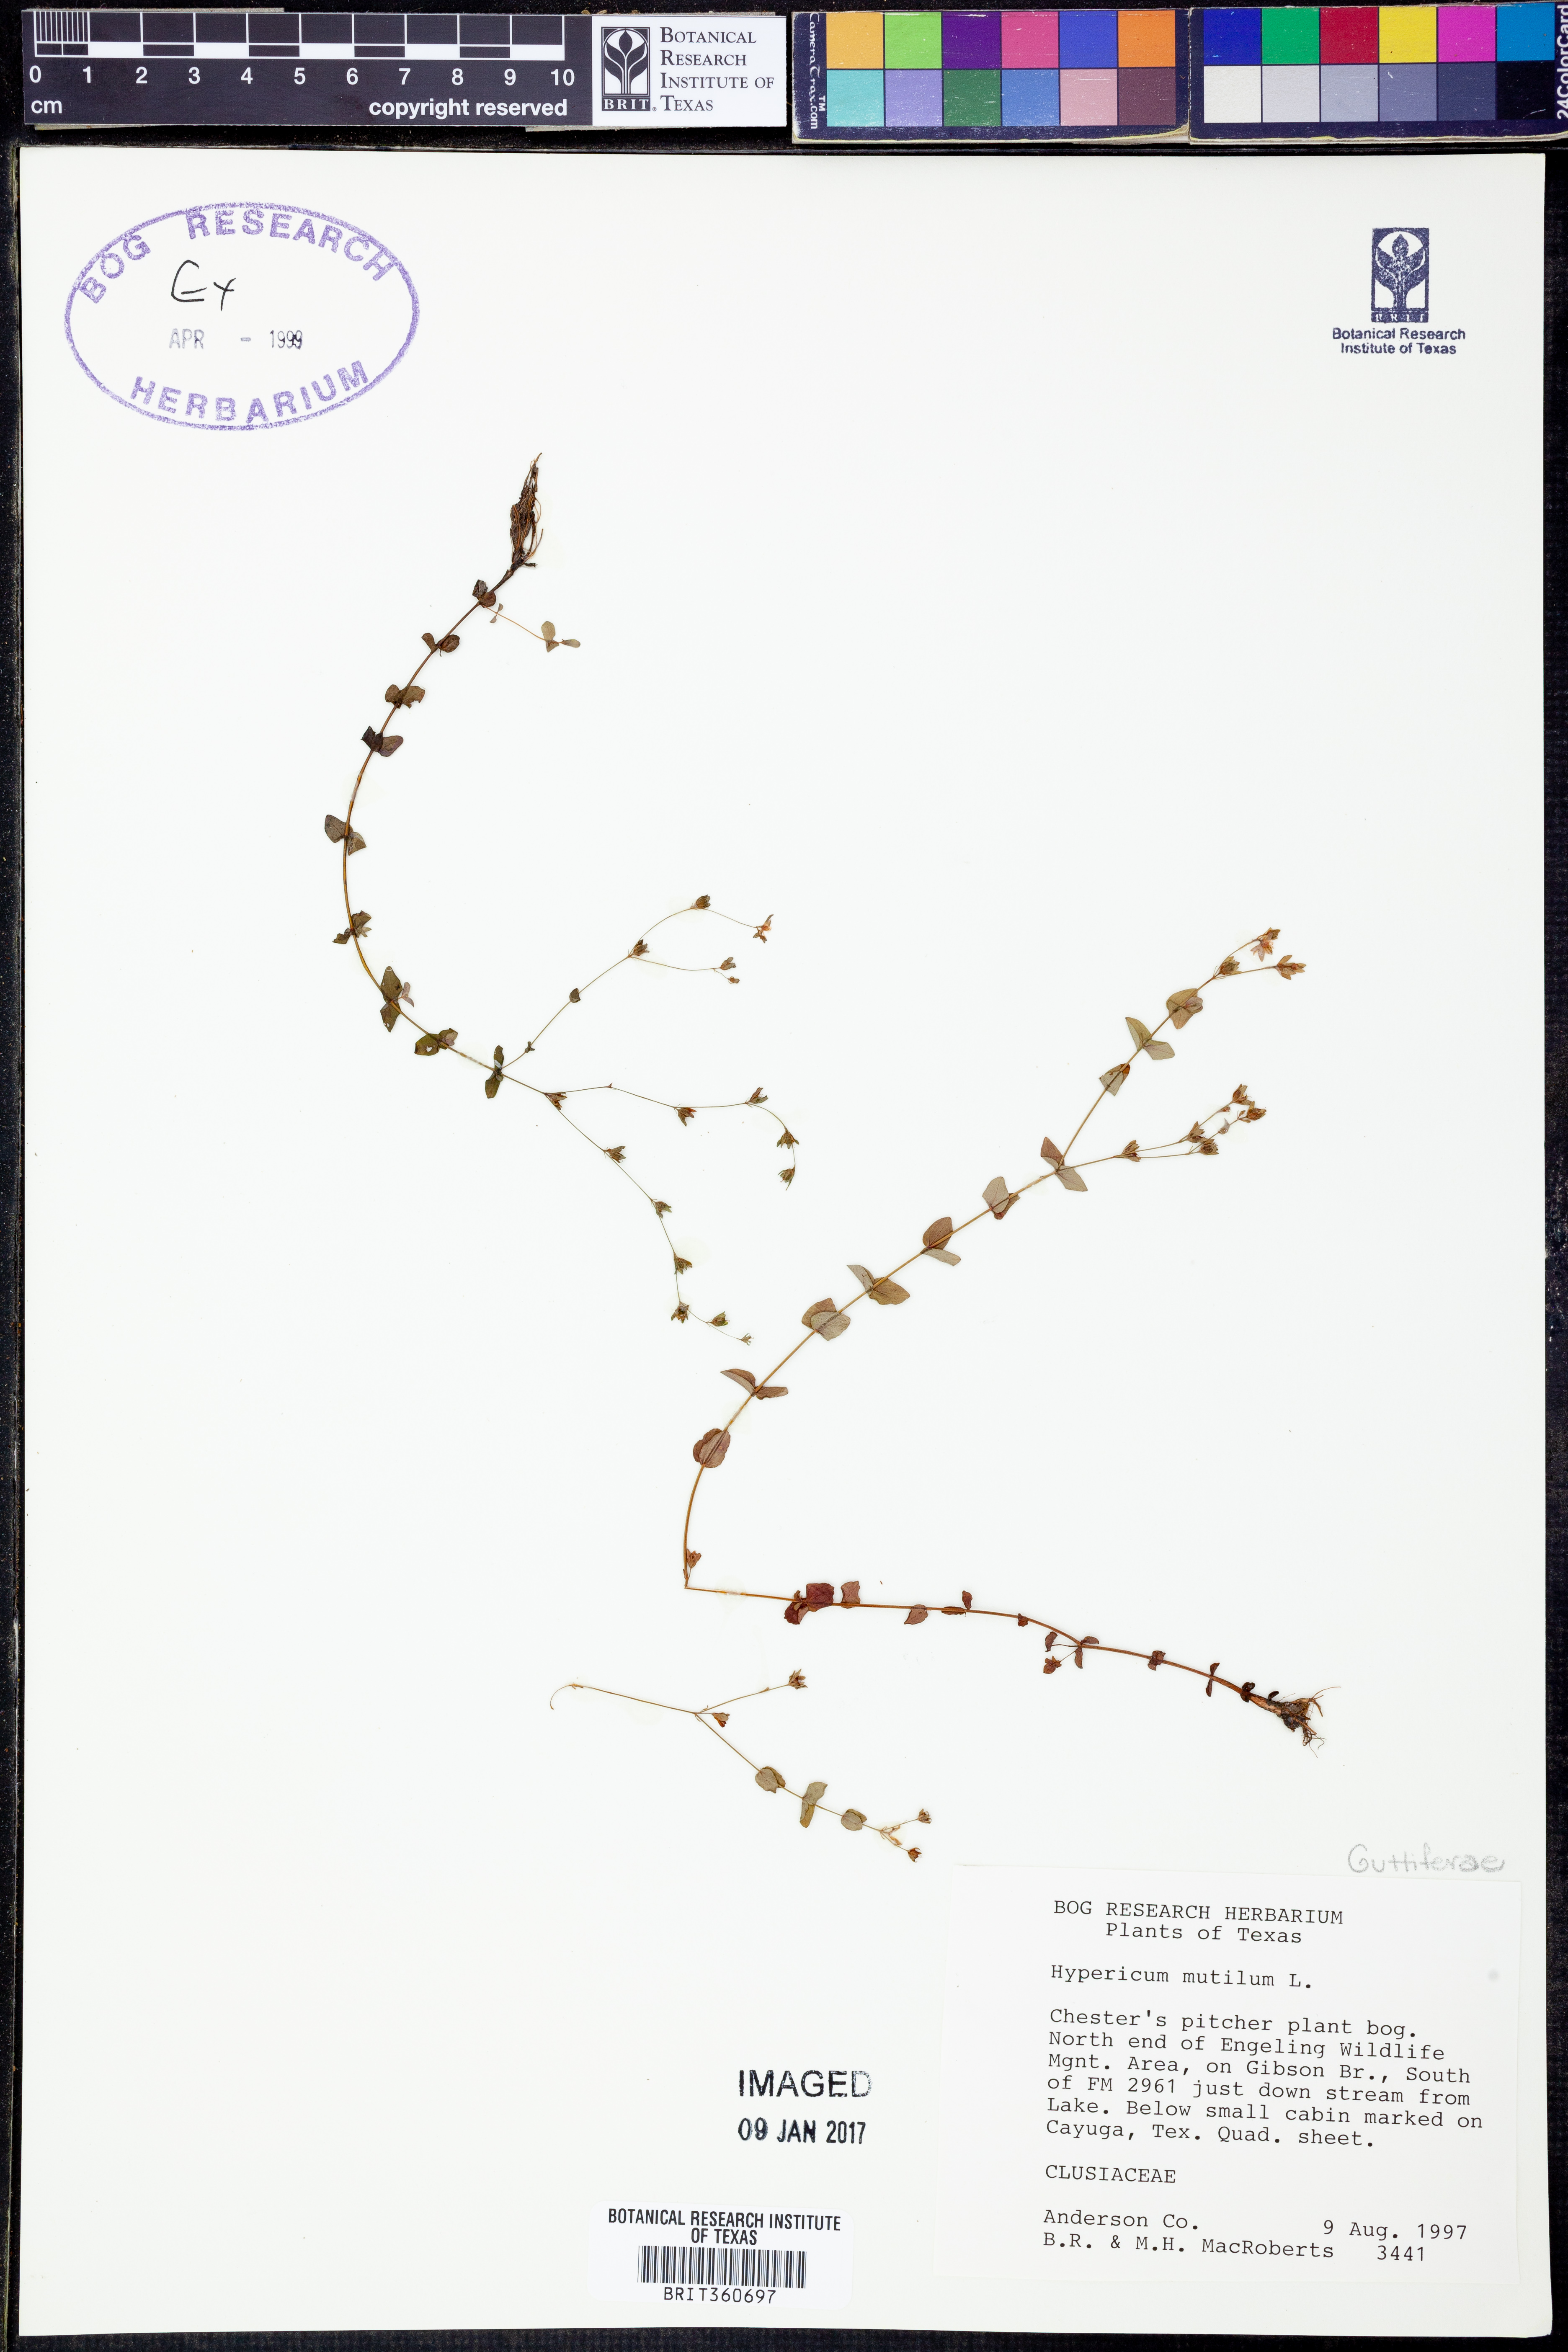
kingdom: Plantae
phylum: Tracheophyta
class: Magnoliopsida
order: Malpighiales
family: Hypericaceae
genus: Hypericum
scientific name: Hypericum mutilum
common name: Dwarf st. john's-wort
